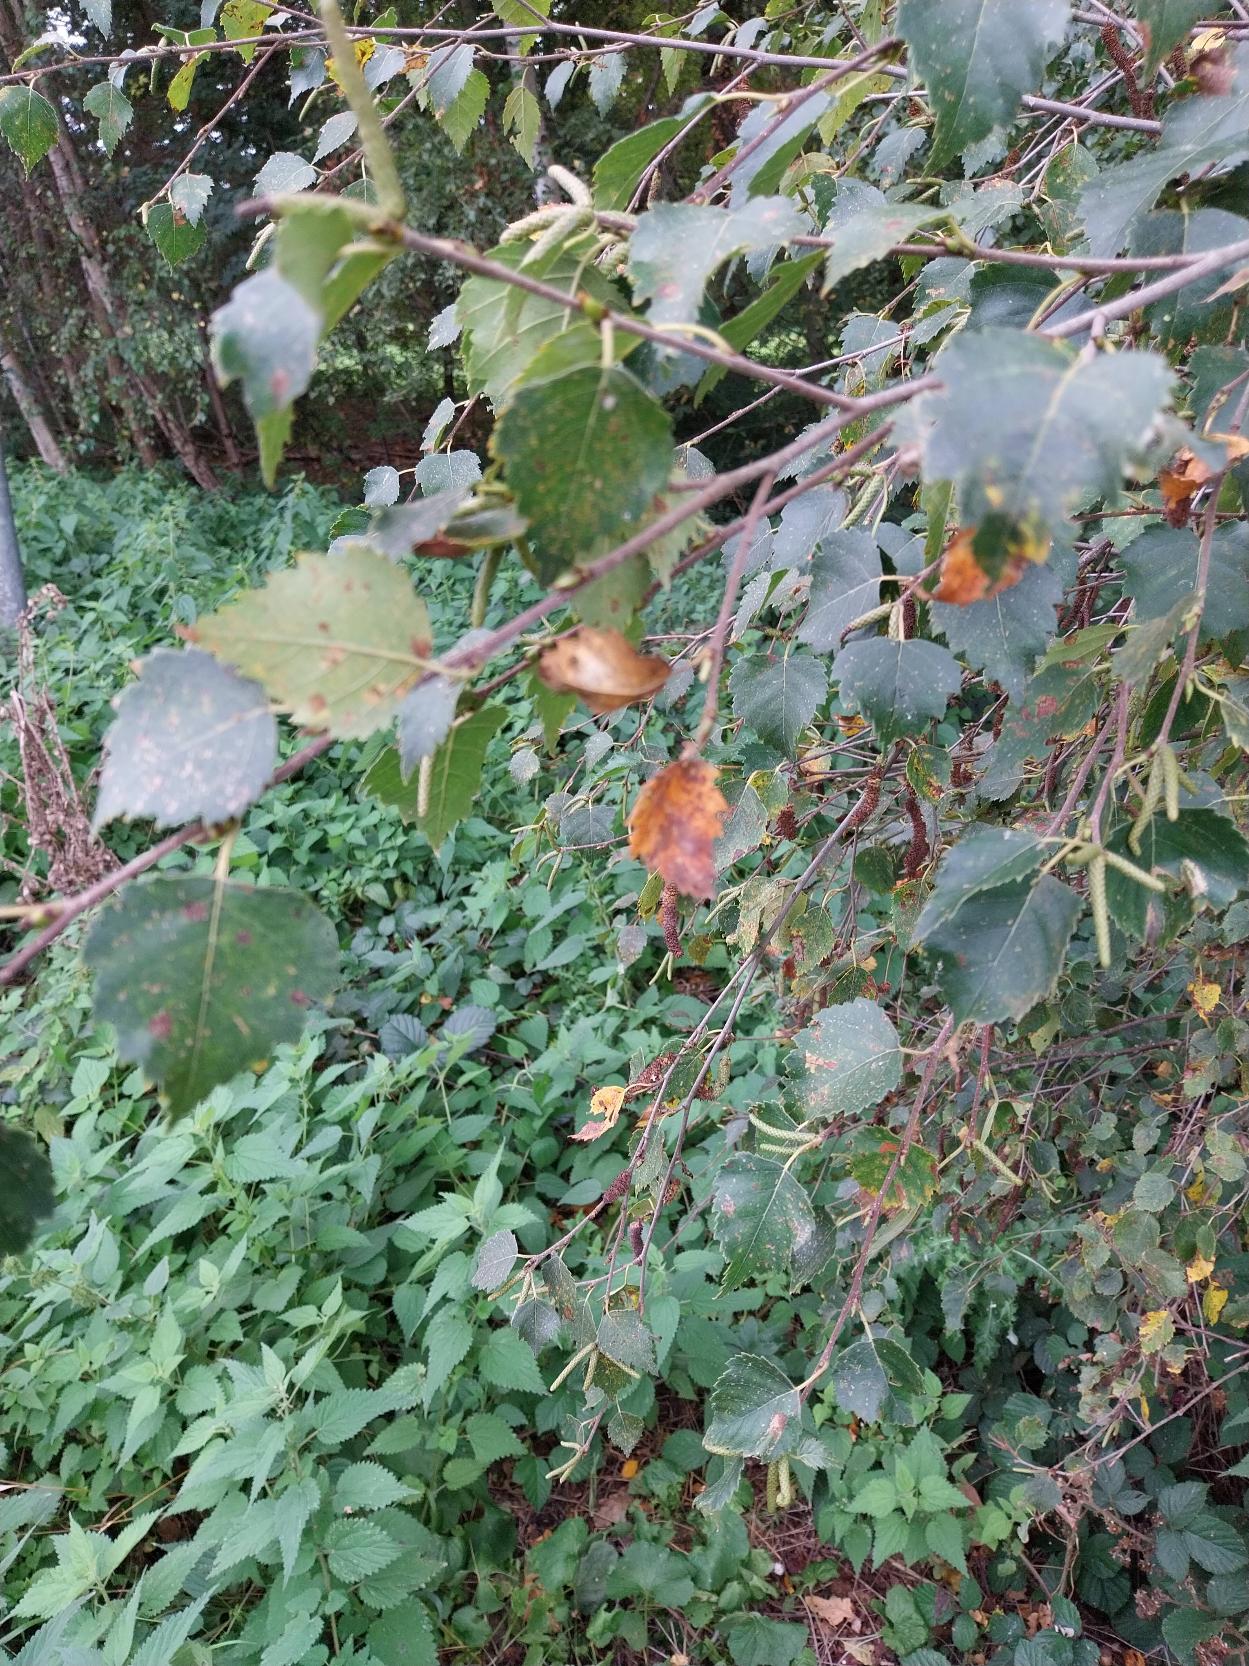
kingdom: Plantae
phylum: Tracheophyta
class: Magnoliopsida
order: Fagales
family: Betulaceae
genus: Betula
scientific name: Betula pendula
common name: Vorte-birk
